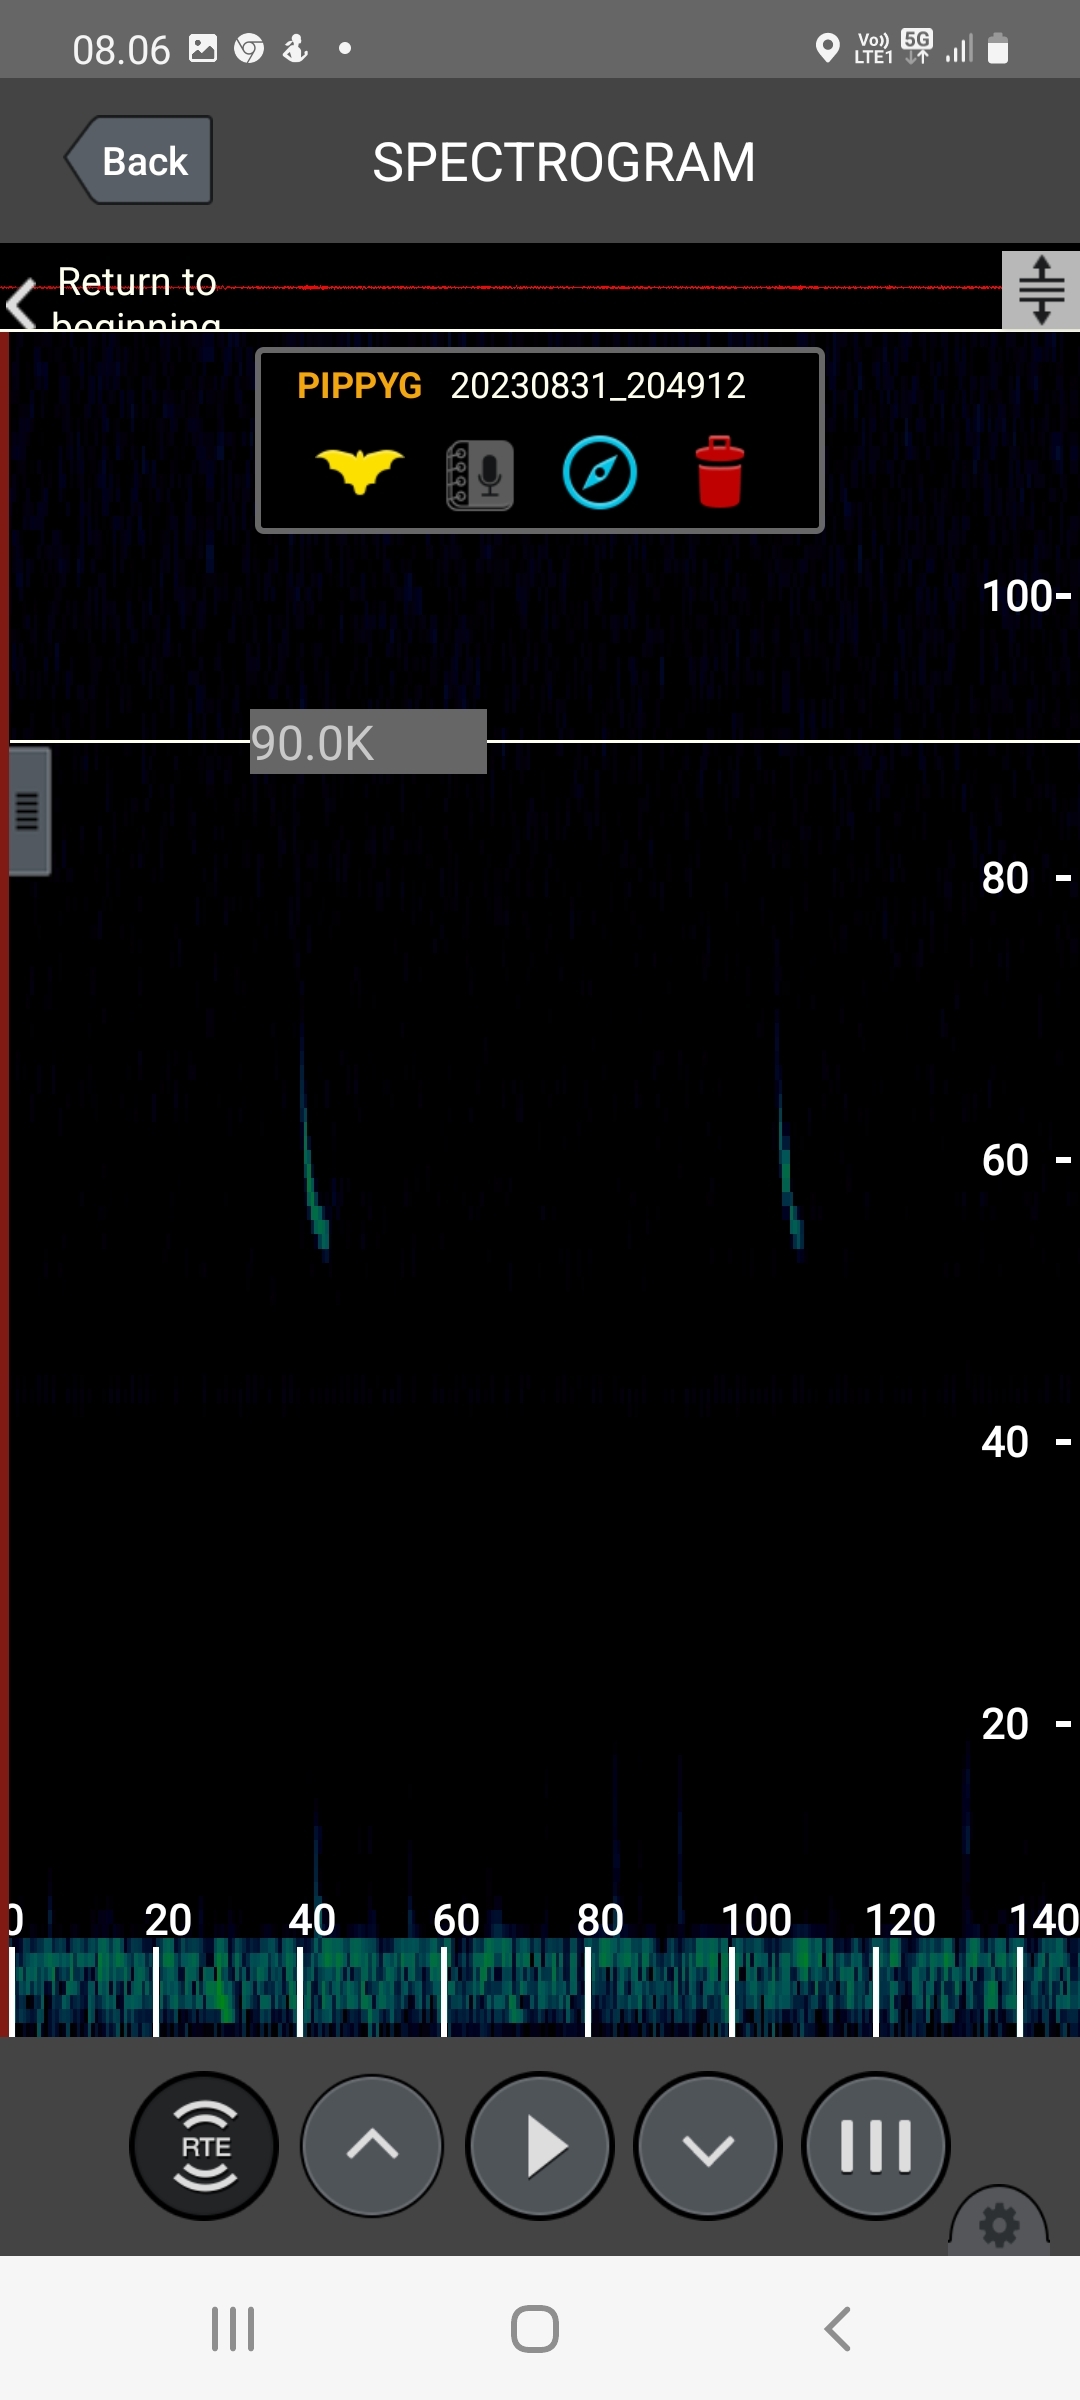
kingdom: Animalia
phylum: Chordata
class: Mammalia
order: Chiroptera
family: Vespertilionidae
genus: Pipistrellus
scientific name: Pipistrellus pygmaeus
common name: Dværgflagermus
